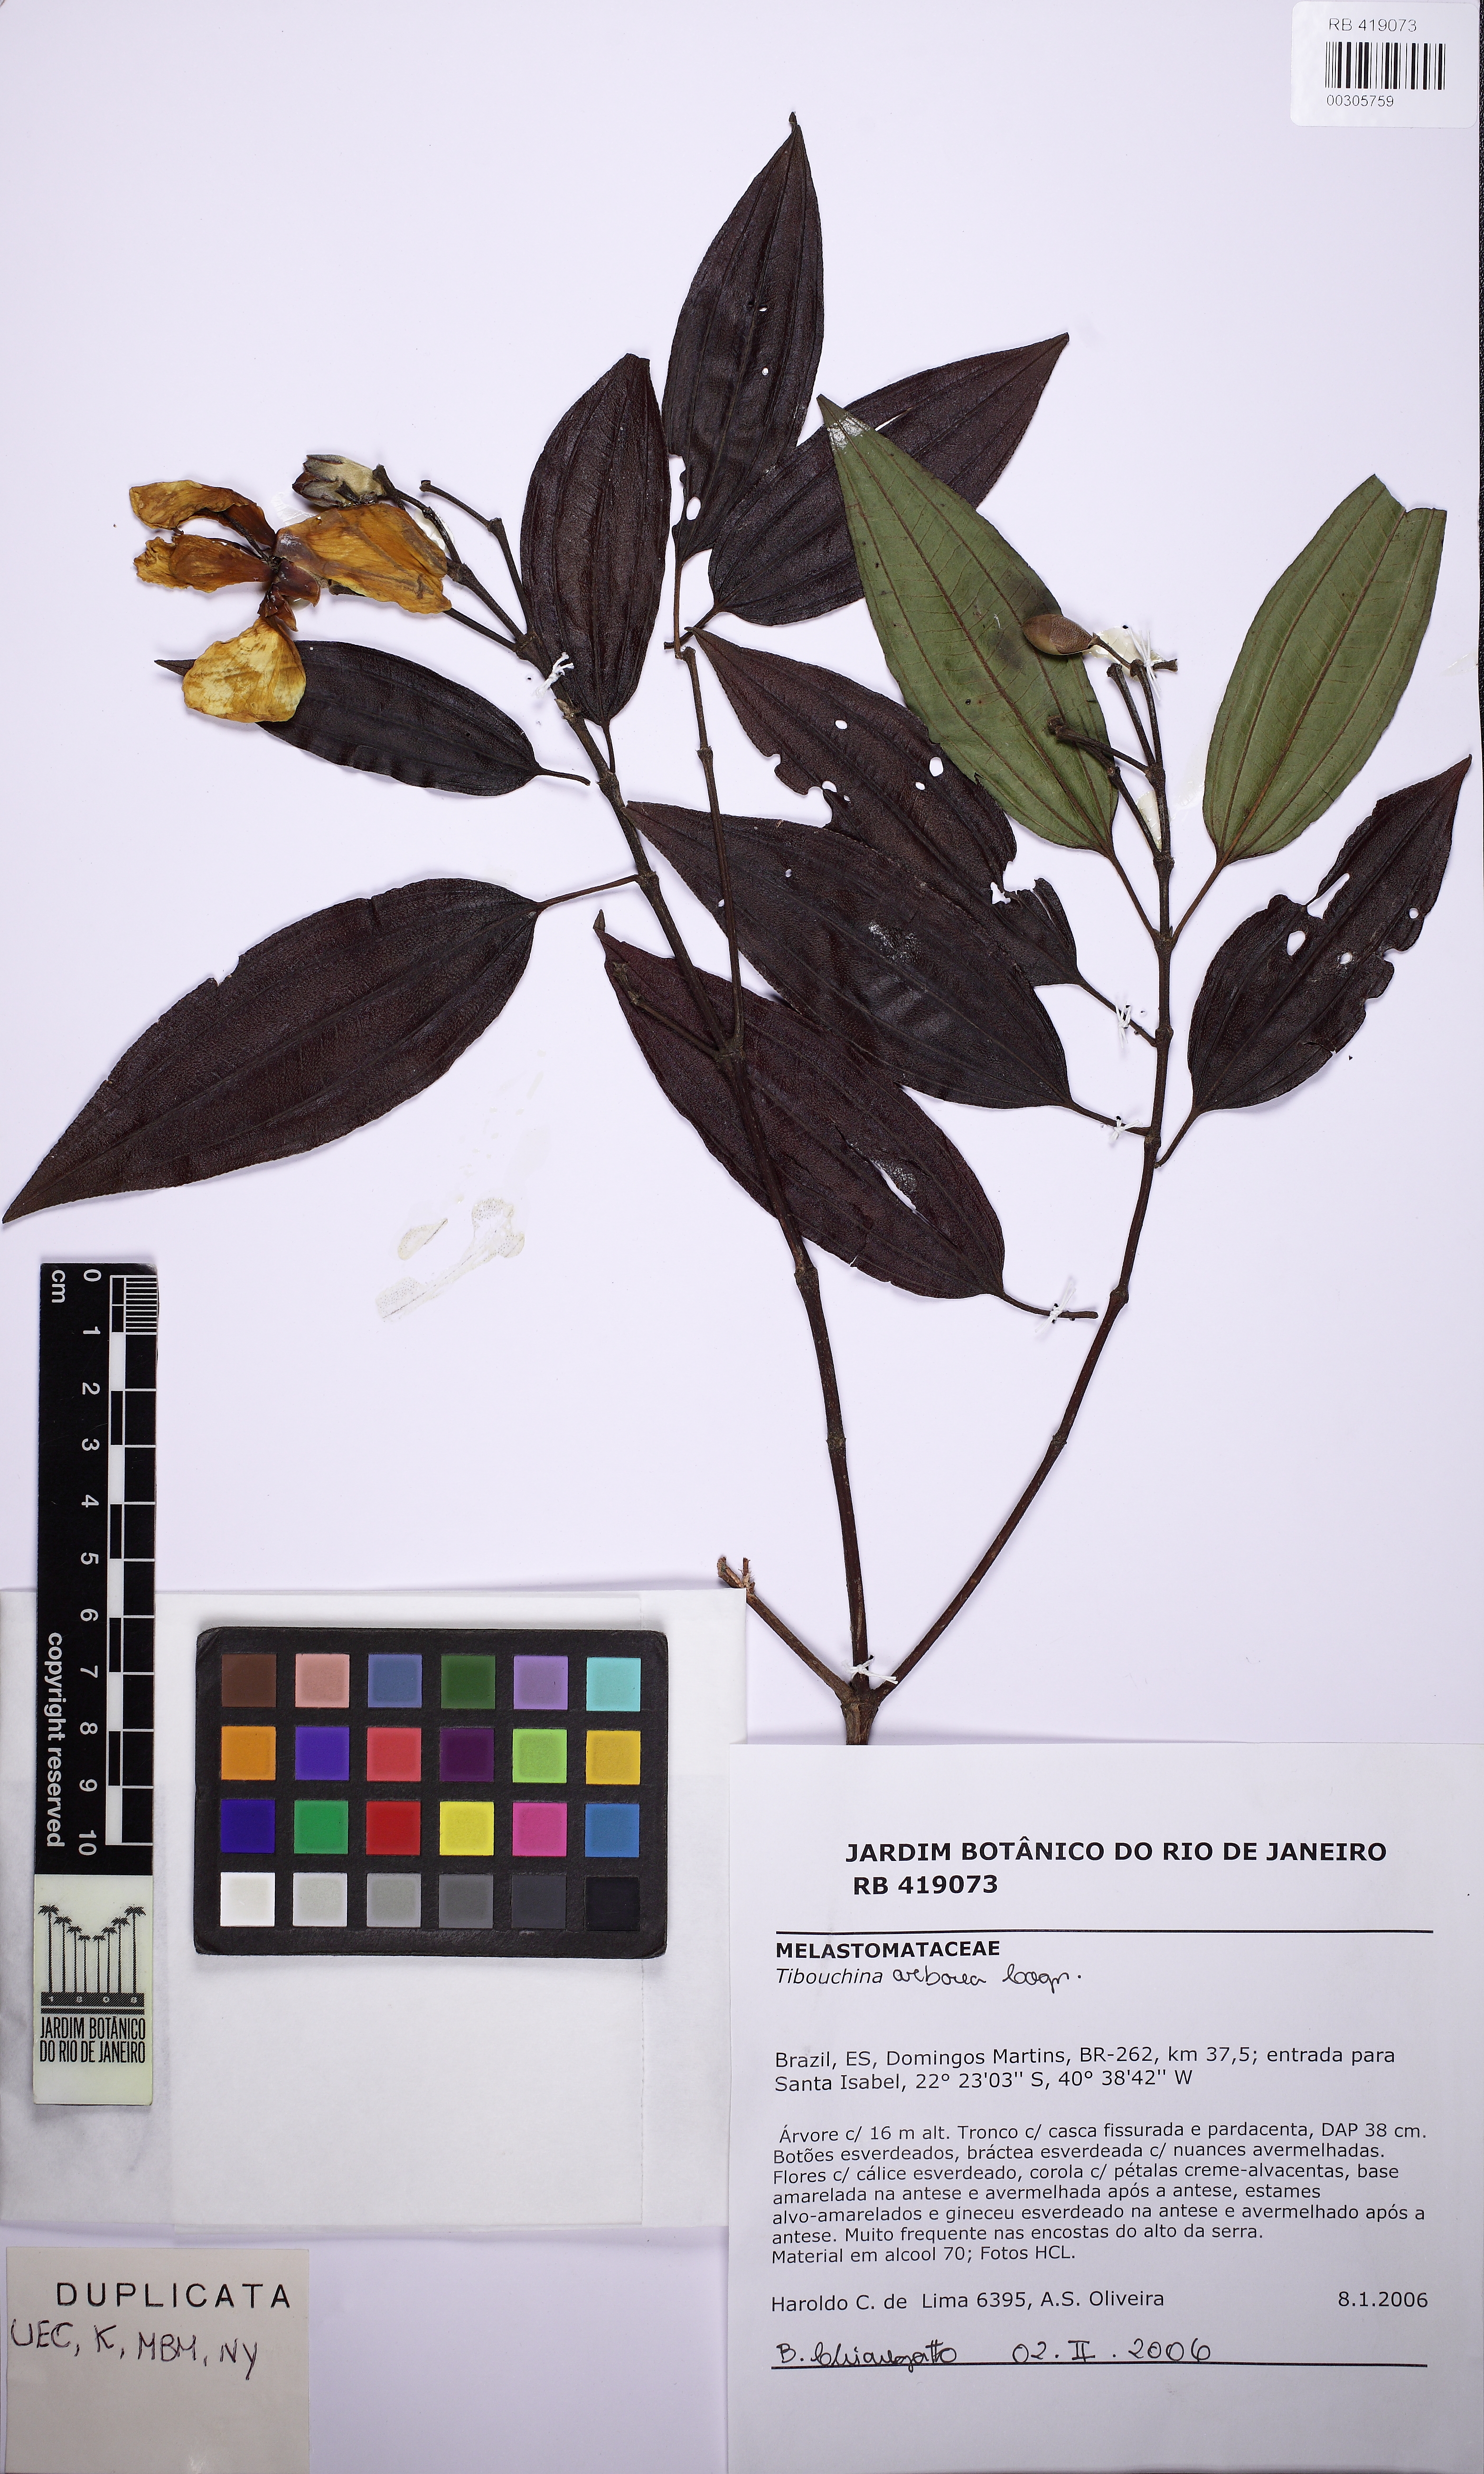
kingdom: Plantae
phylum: Tracheophyta
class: Magnoliopsida
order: Myrtales
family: Melastomataceae
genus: Pleroma
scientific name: Pleroma arboreum
